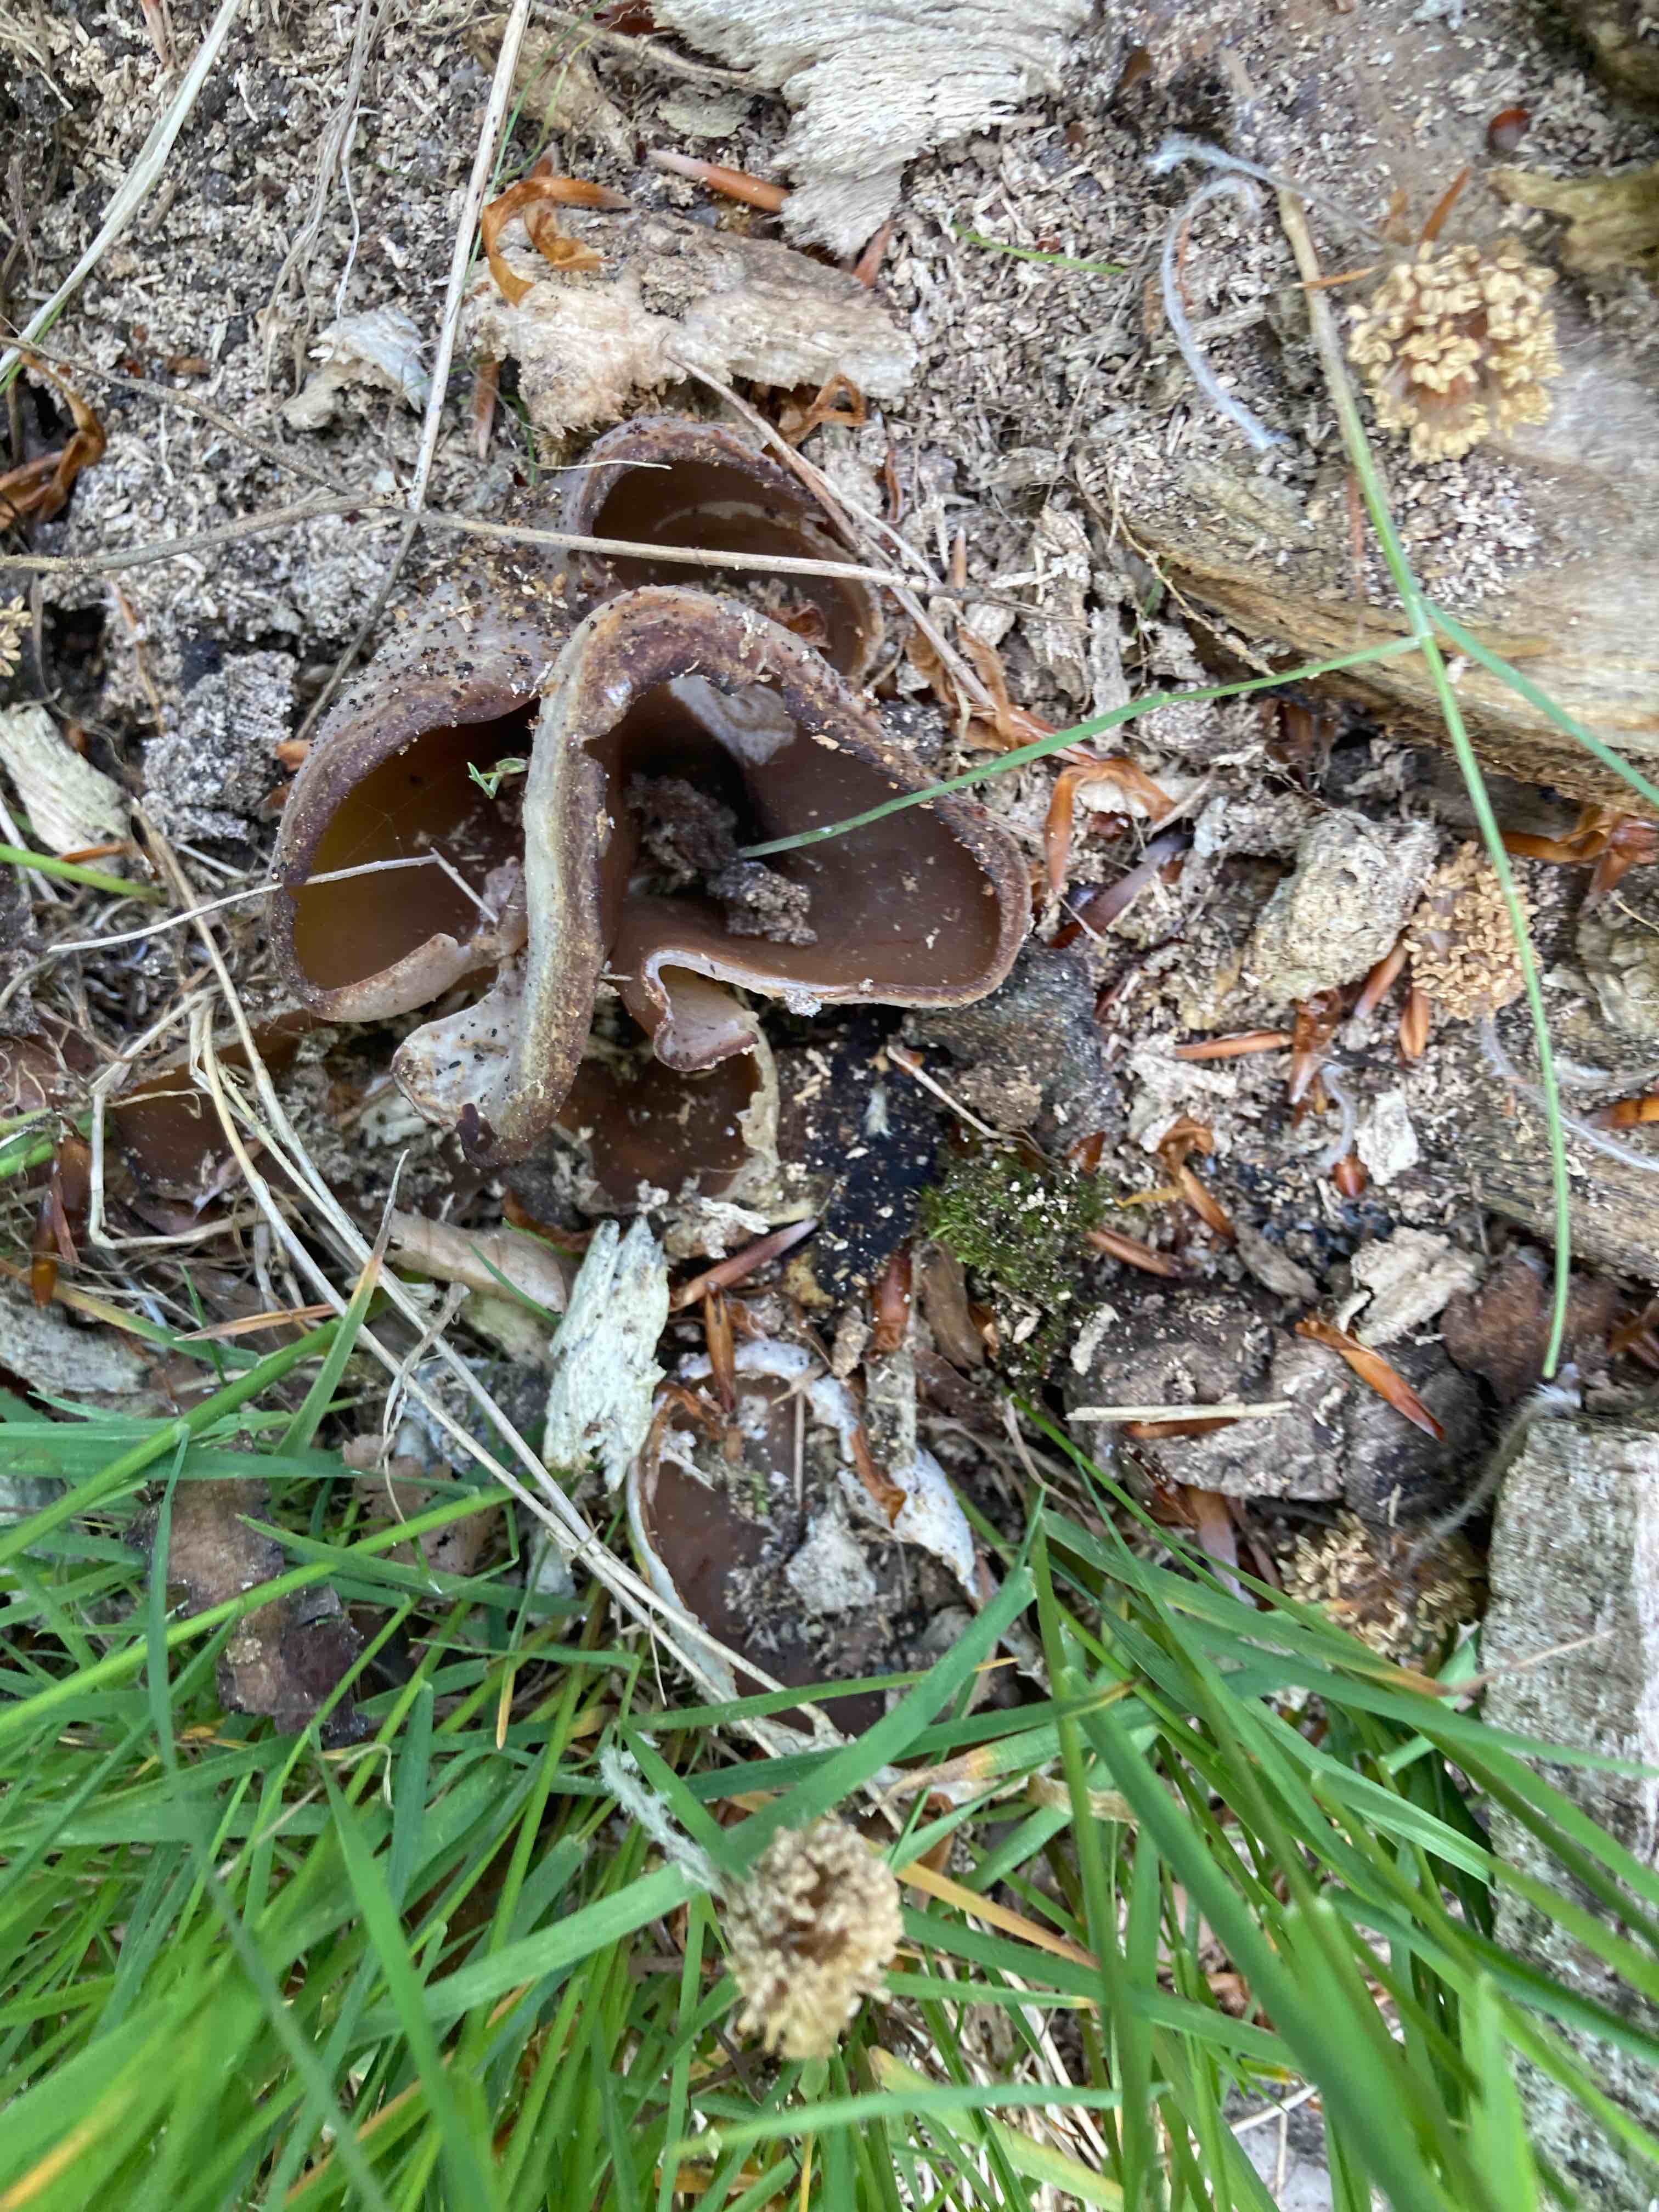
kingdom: Fungi
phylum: Ascomycota
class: Pezizomycetes
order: Pezizales
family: Pezizaceae
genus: Peziza
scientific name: Peziza varia
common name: Ved-bægersvamp
